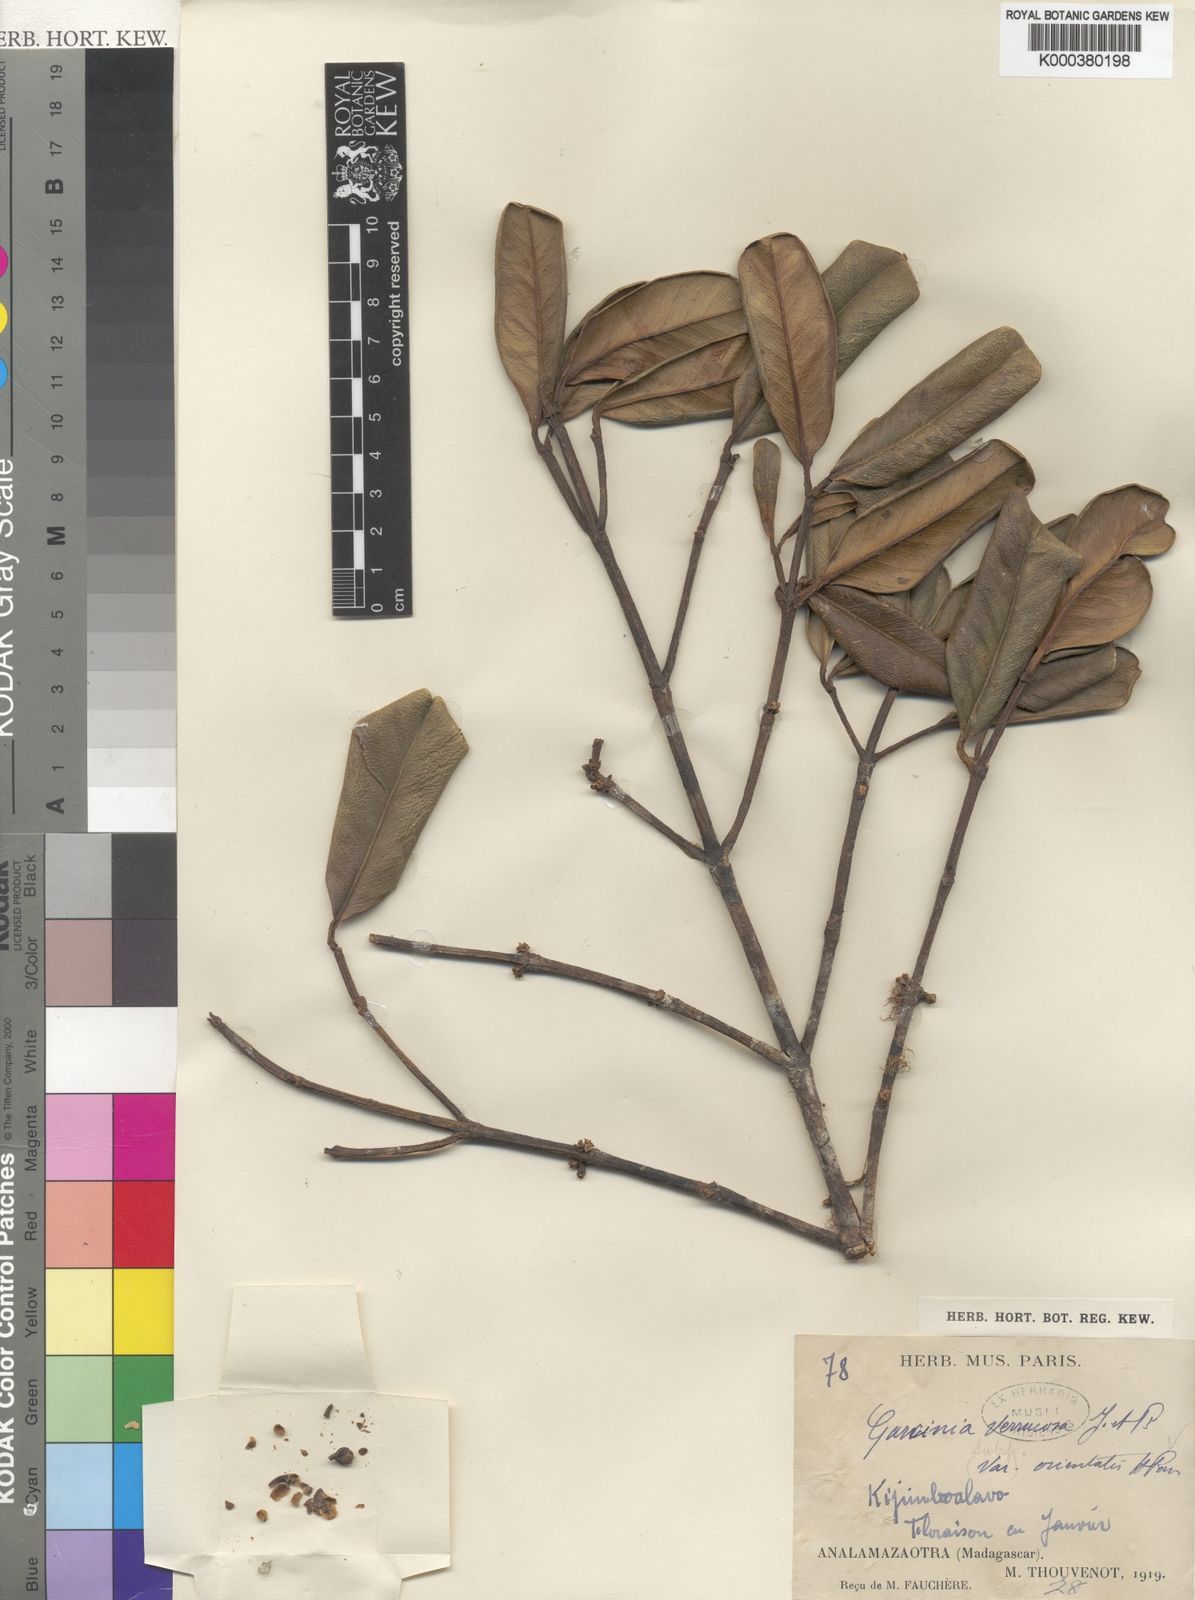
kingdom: Plantae
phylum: Tracheophyta
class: Magnoliopsida
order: Malpighiales
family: Clusiaceae
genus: Garcinia
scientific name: Garcinia verrucosa
